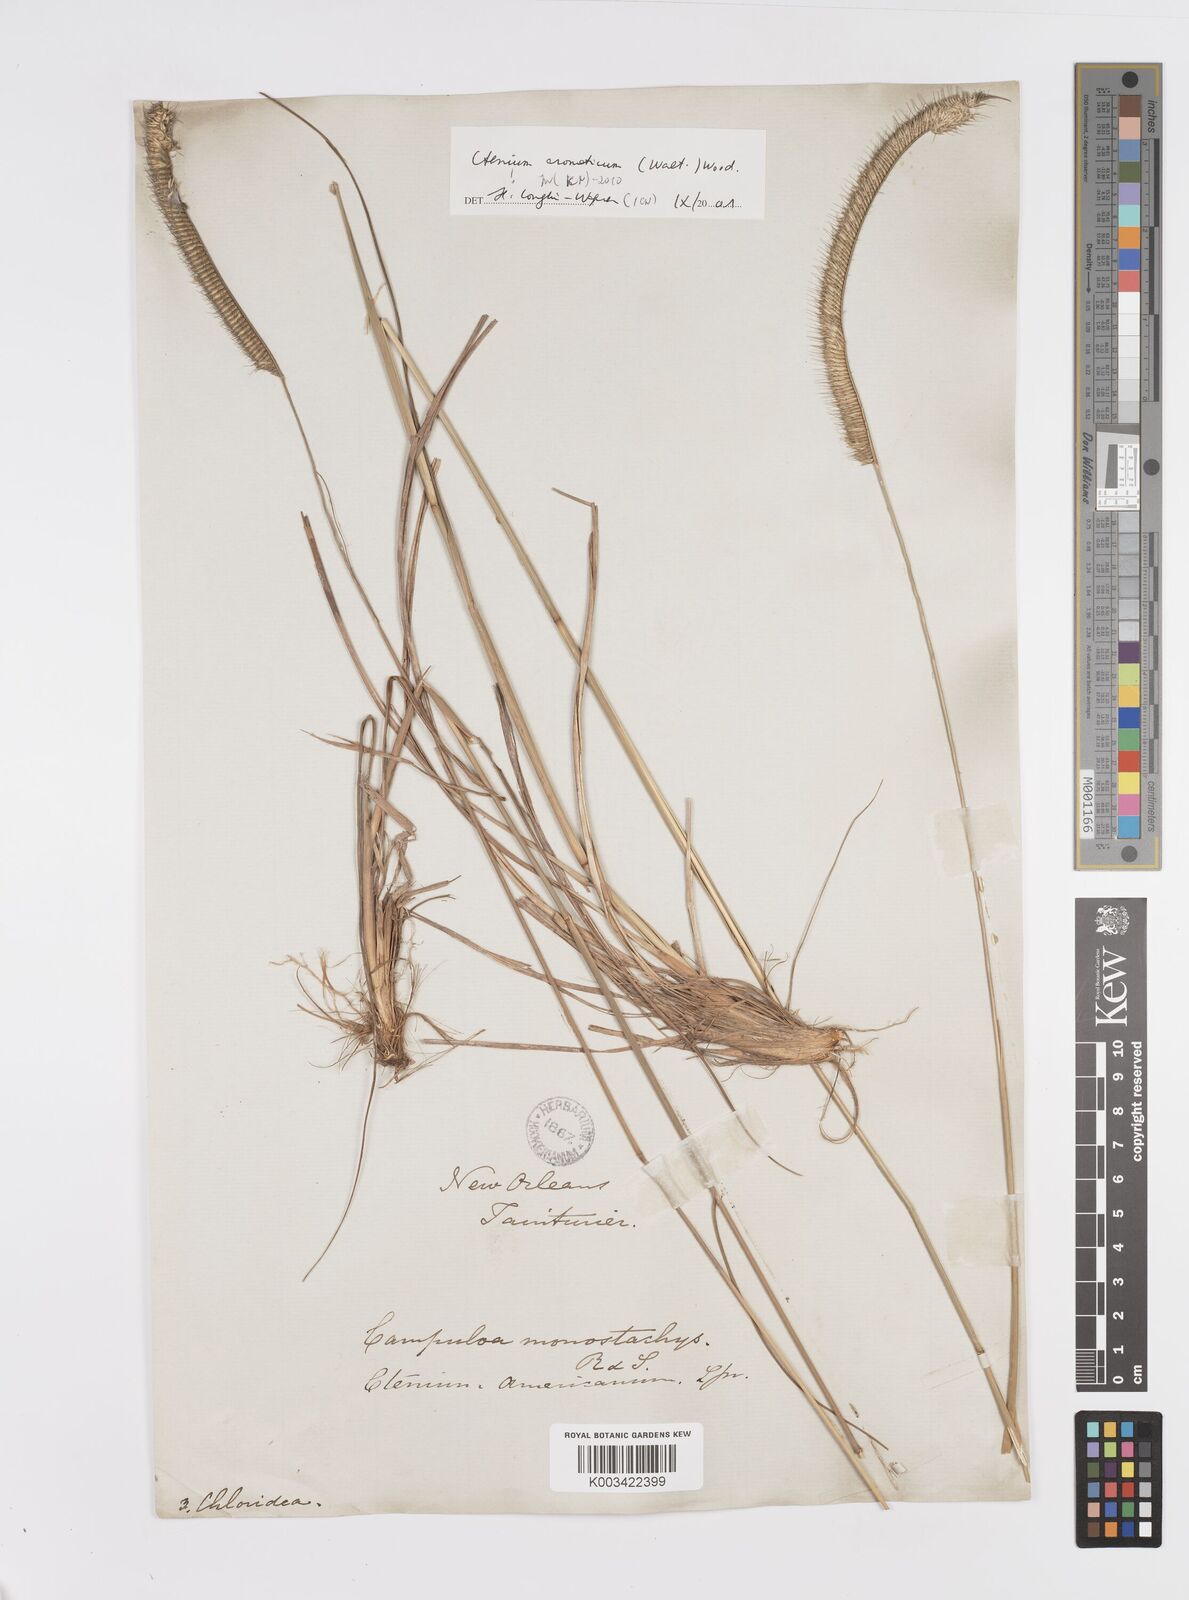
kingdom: Plantae
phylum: Tracheophyta
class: Liliopsida
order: Poales
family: Poaceae
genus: Ctenium
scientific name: Ctenium aromaticum
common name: Toothache grass
